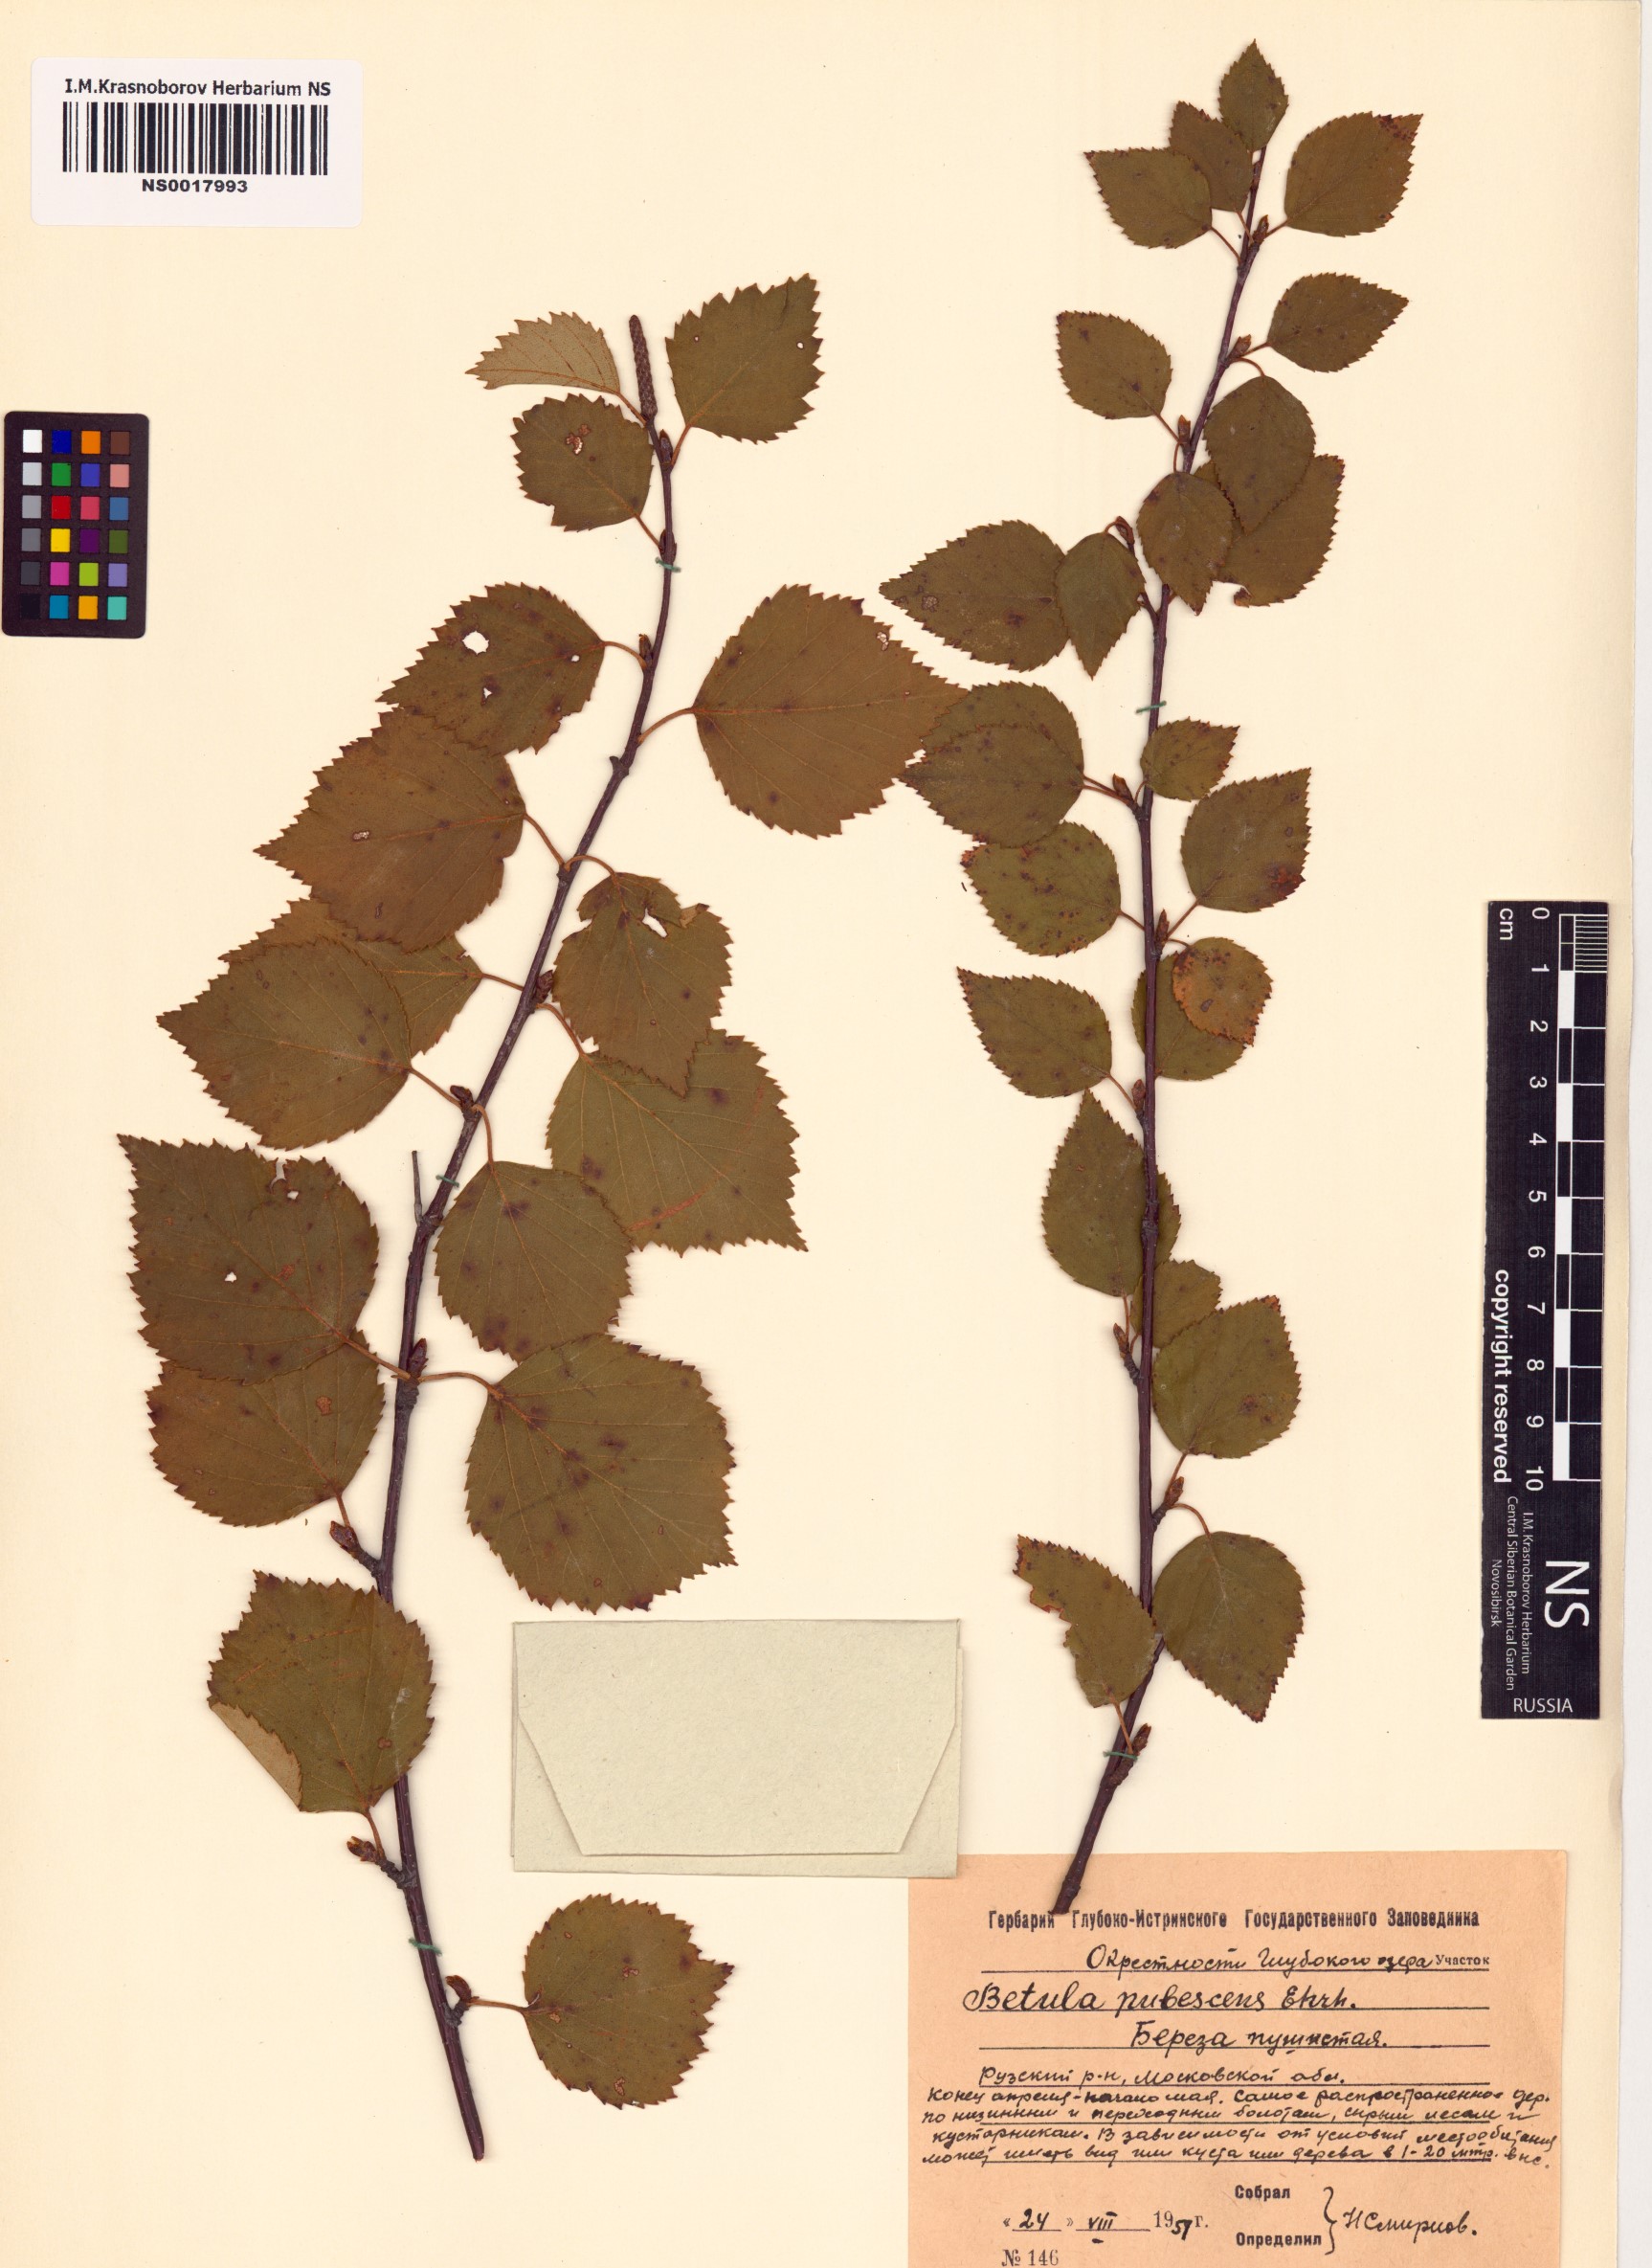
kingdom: Plantae
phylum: Tracheophyta
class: Magnoliopsida
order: Fagales
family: Betulaceae
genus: Betula
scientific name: Betula pubescens
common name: Downy birch
